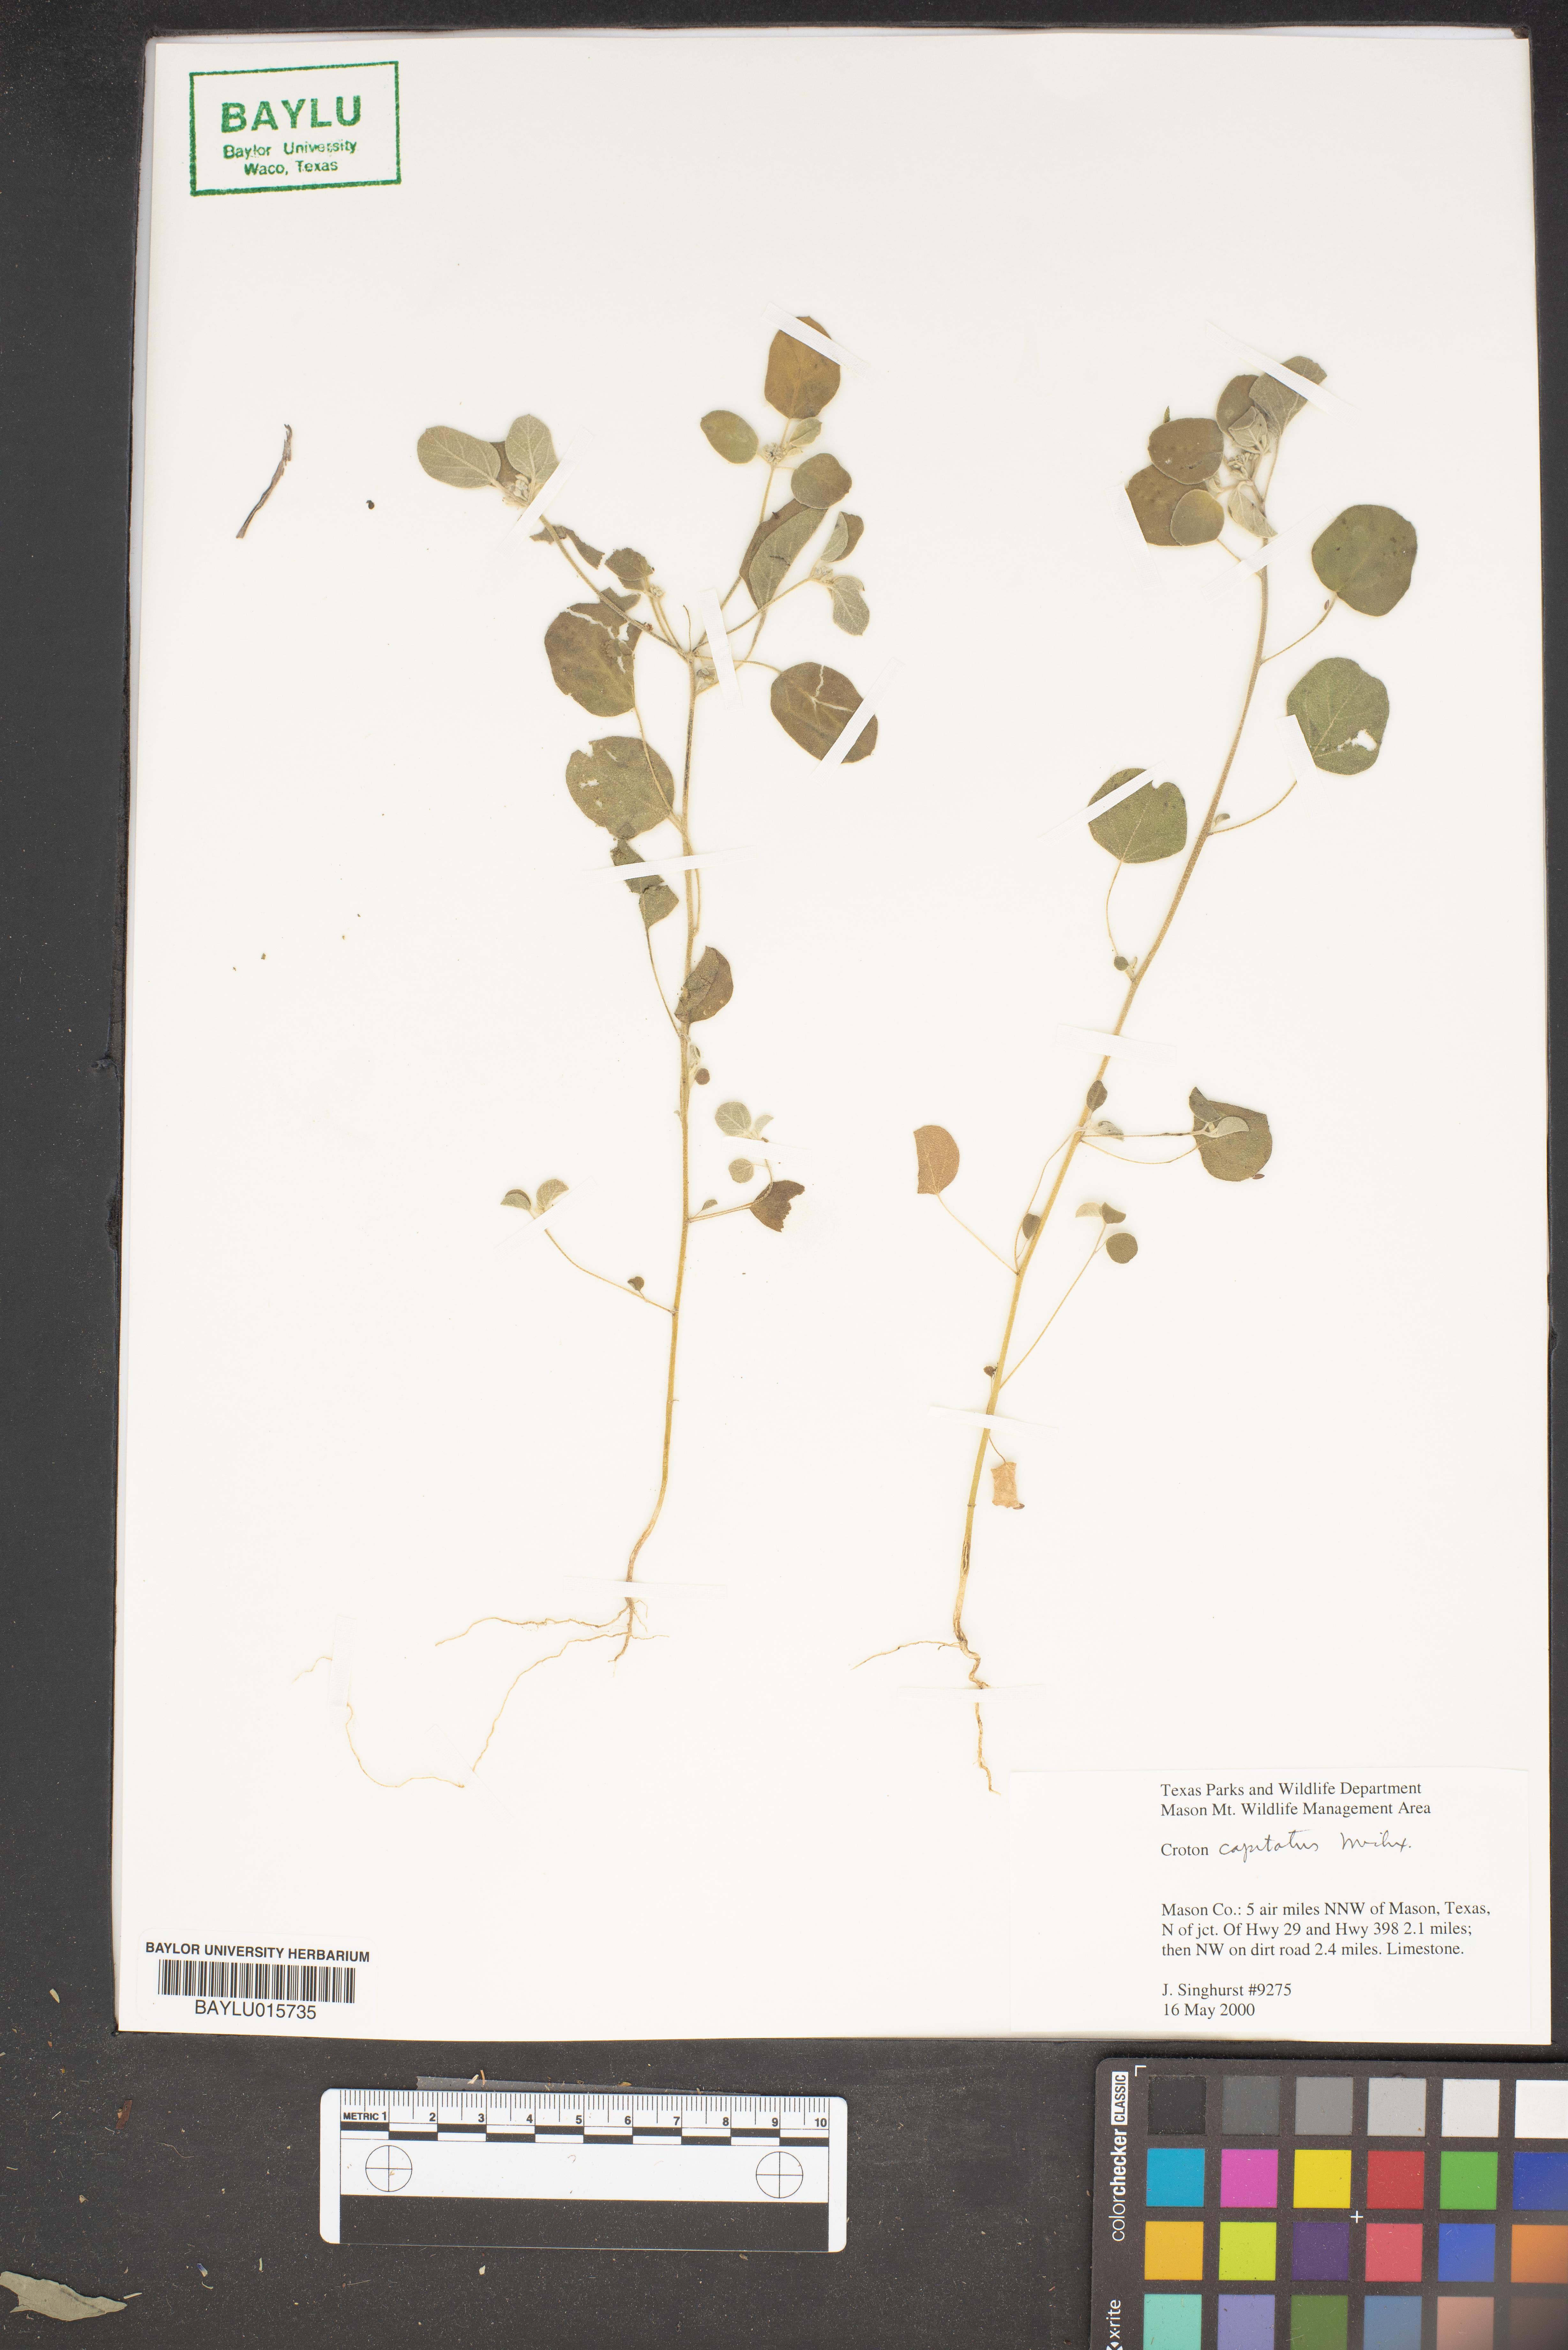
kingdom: Plantae
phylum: Tracheophyta
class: Magnoliopsida
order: Malpighiales
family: Euphorbiaceae
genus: Croton
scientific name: Croton capitatus
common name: Woolly croton
